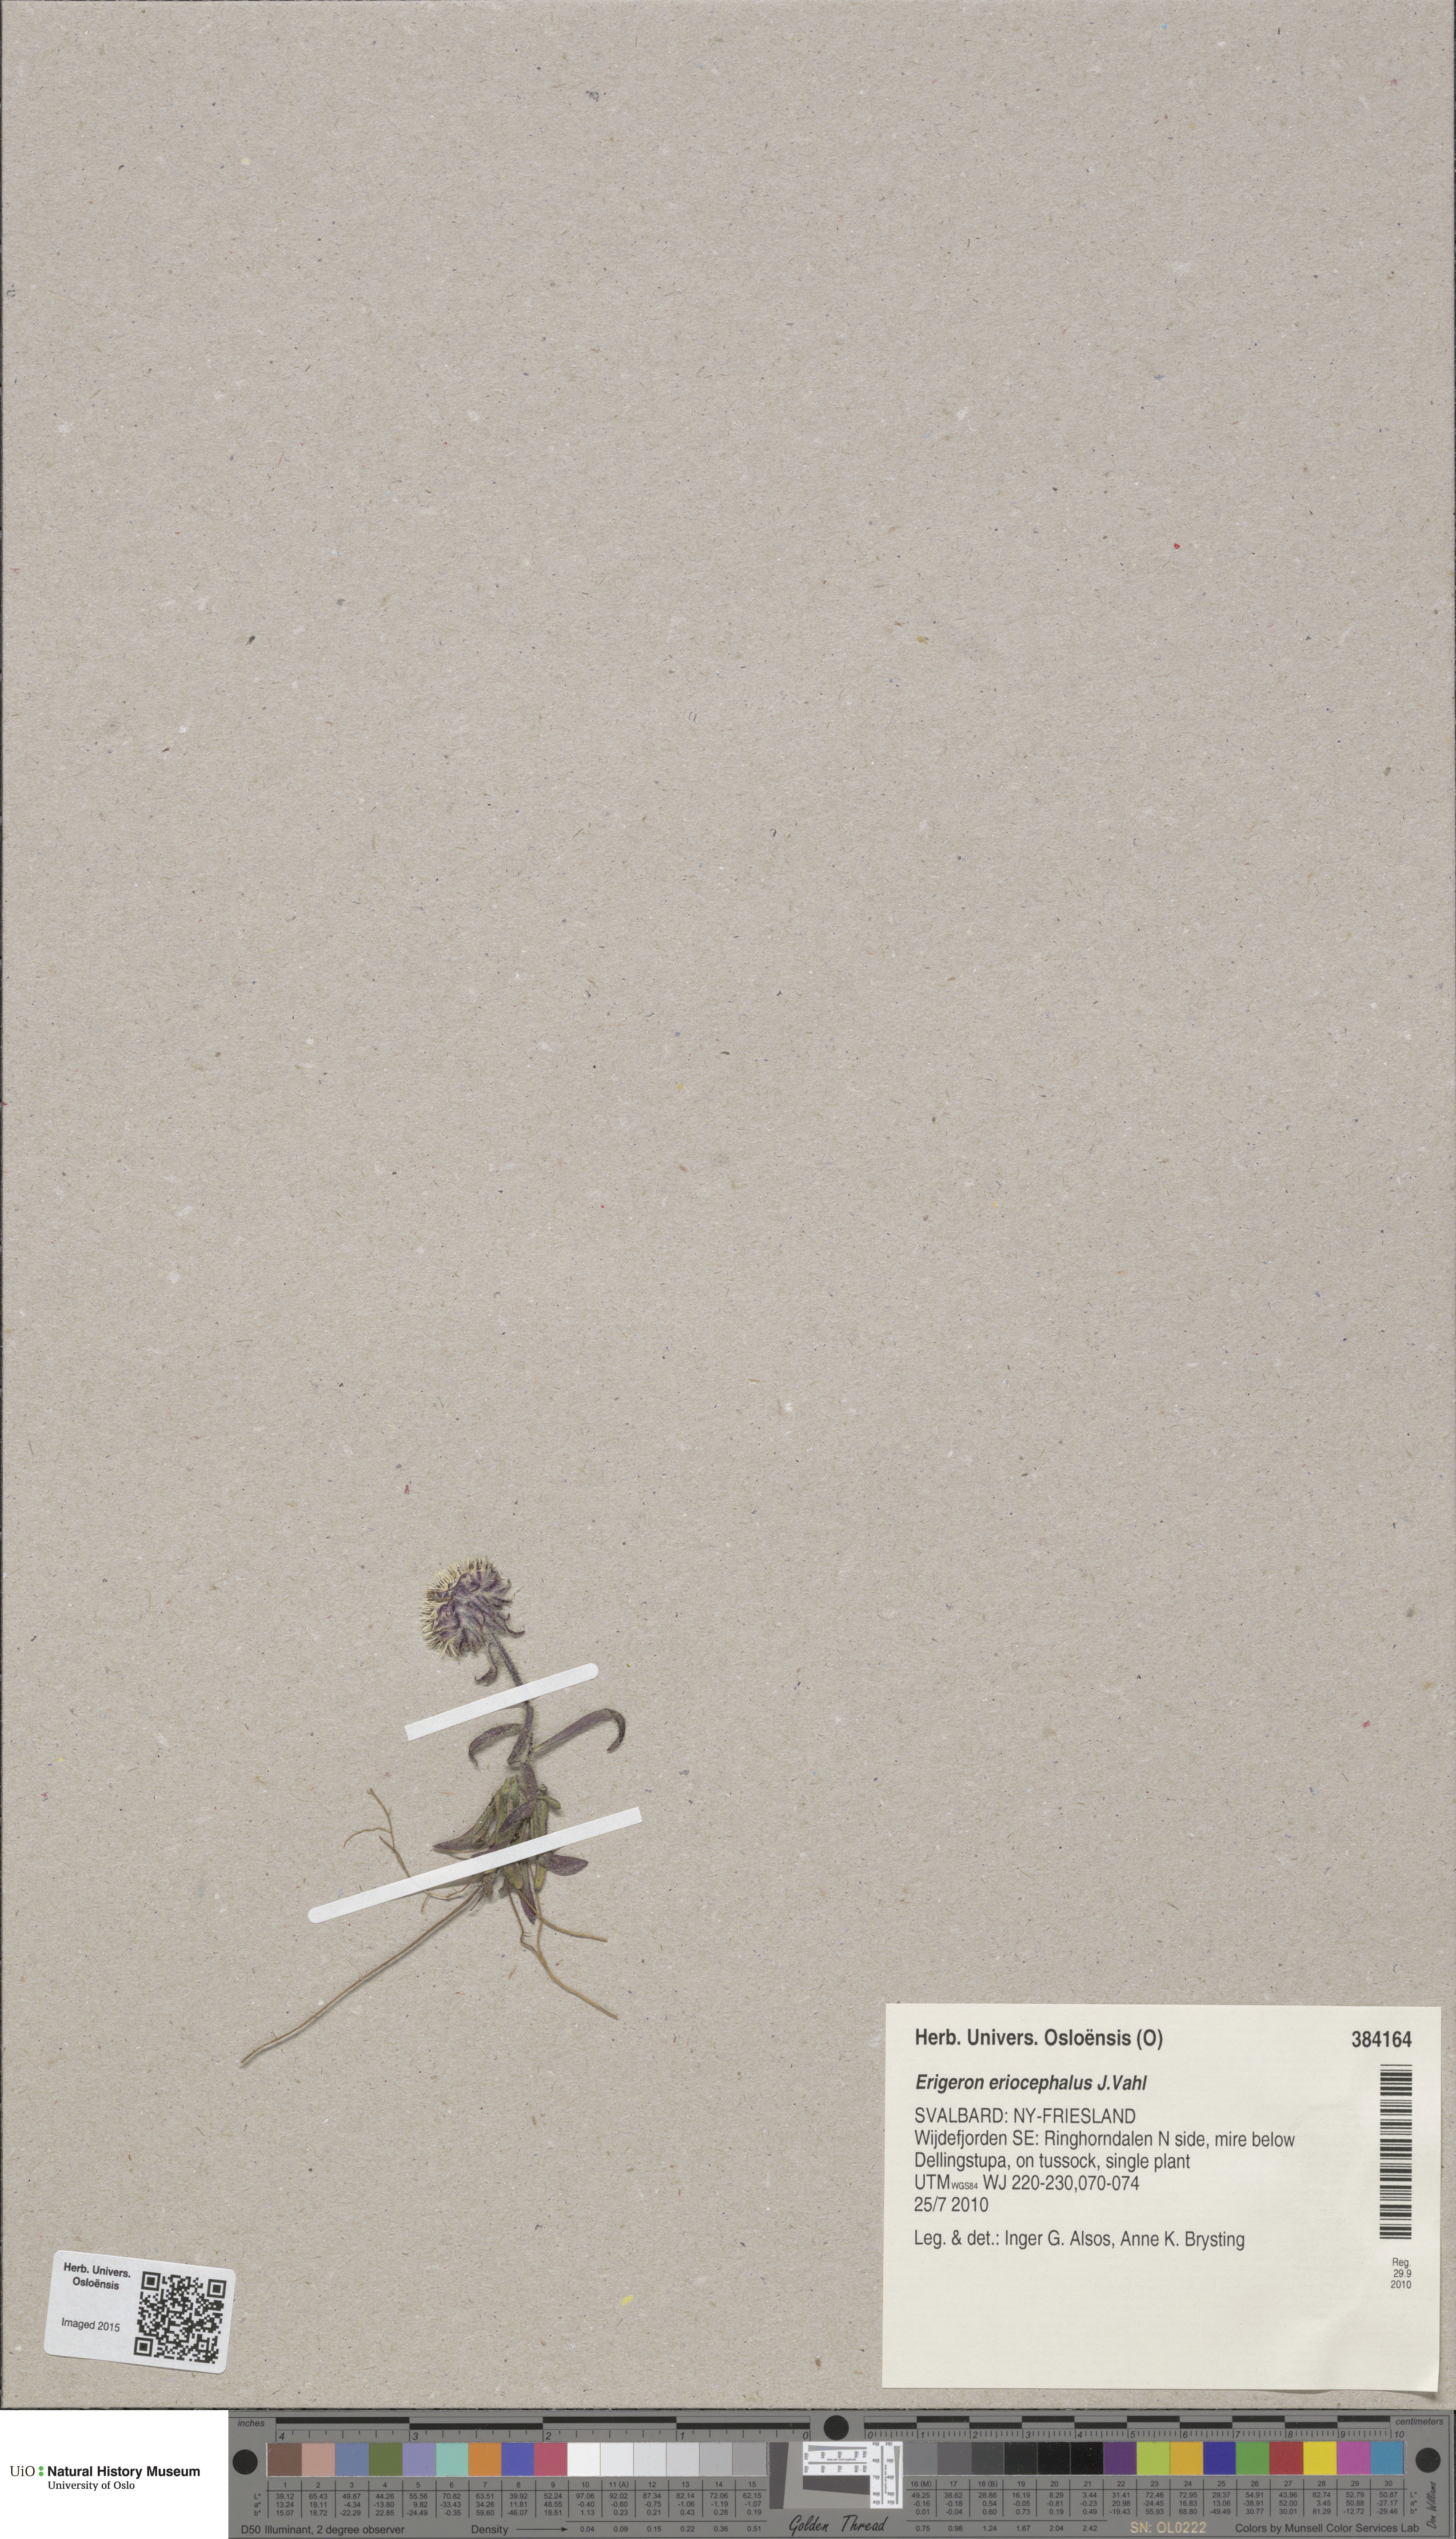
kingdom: Plantae
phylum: Tracheophyta
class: Magnoliopsida
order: Asterales
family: Asteraceae
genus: Erigeron
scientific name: Erigeron eriocephalus
